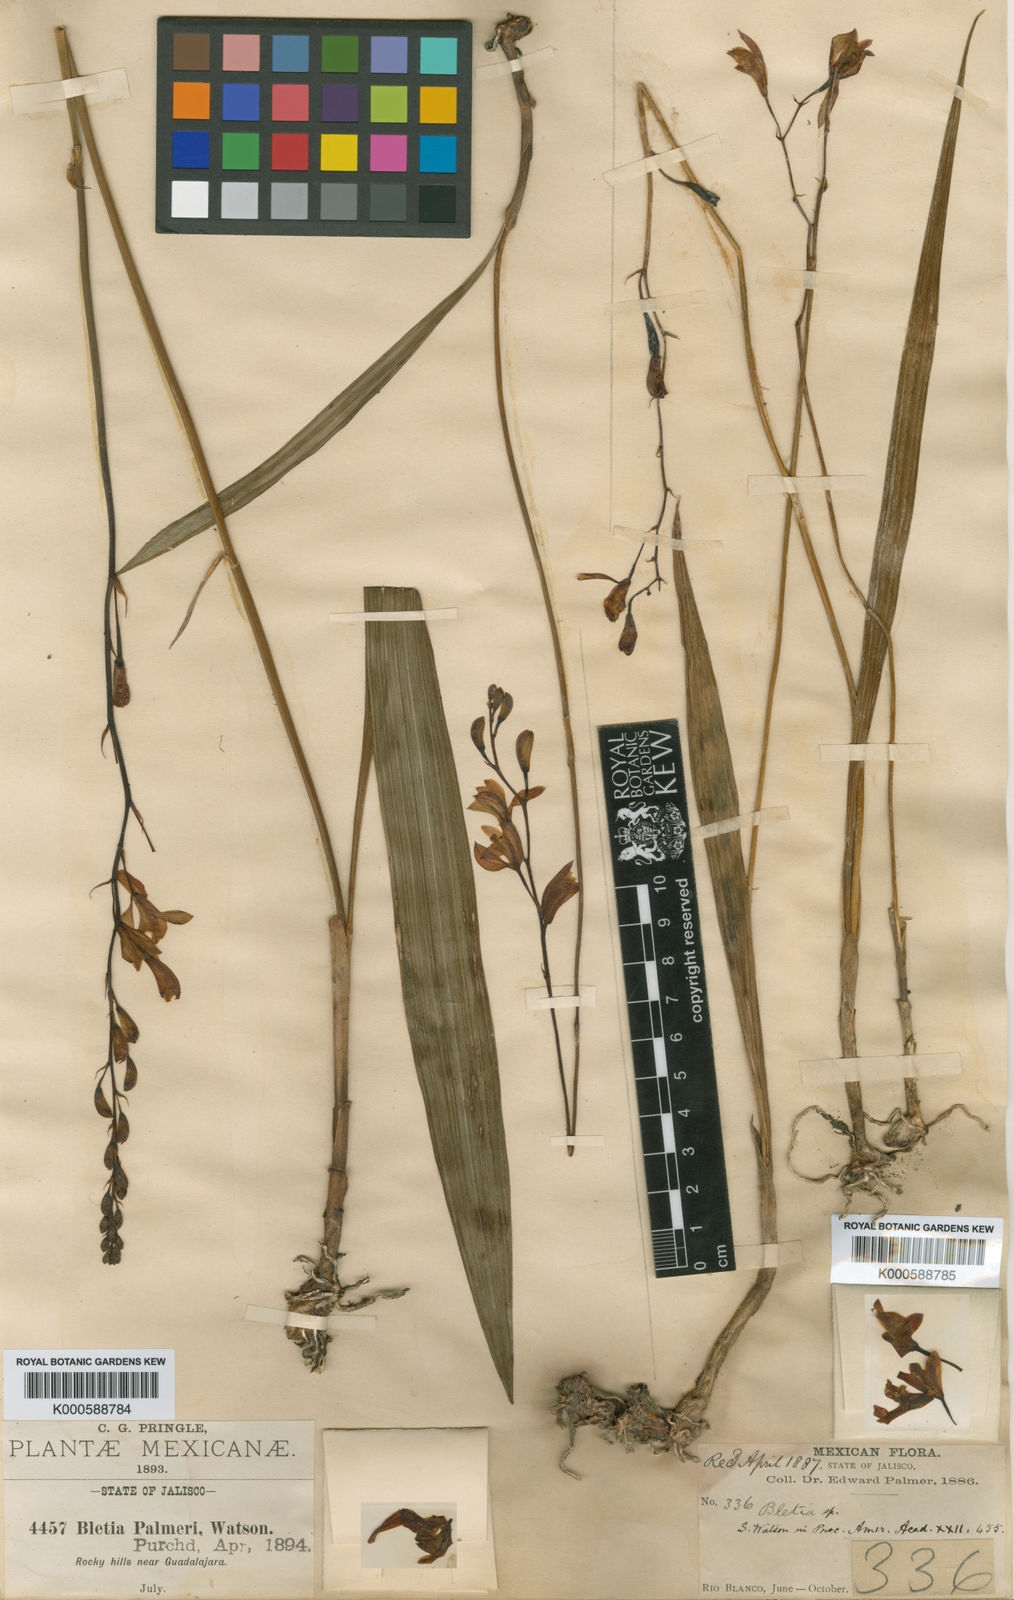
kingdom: Plantae
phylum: Tracheophyta
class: Liliopsida
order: Asparagales
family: Orchidaceae
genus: Bletia
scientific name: Bletia adenocarpa
